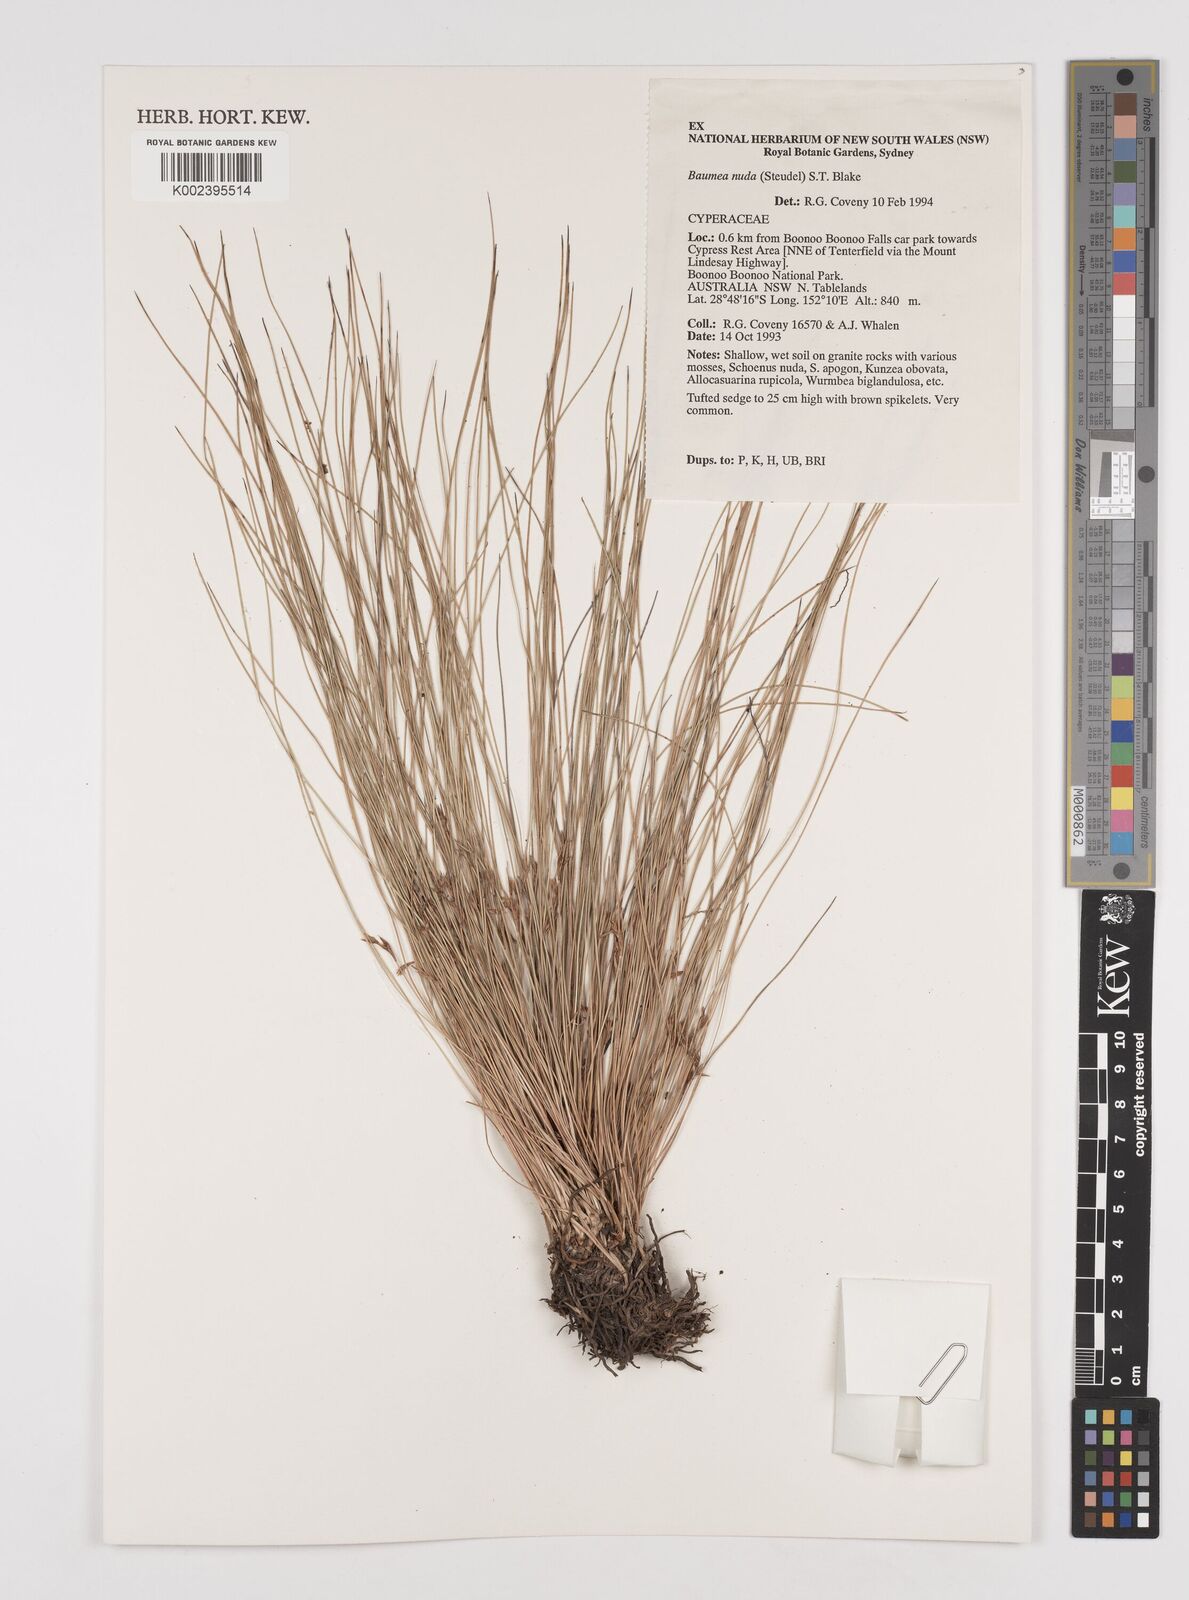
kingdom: Plantae
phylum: Tracheophyta
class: Liliopsida
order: Poales
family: Cyperaceae
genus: Machaerina
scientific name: Machaerina nuda
